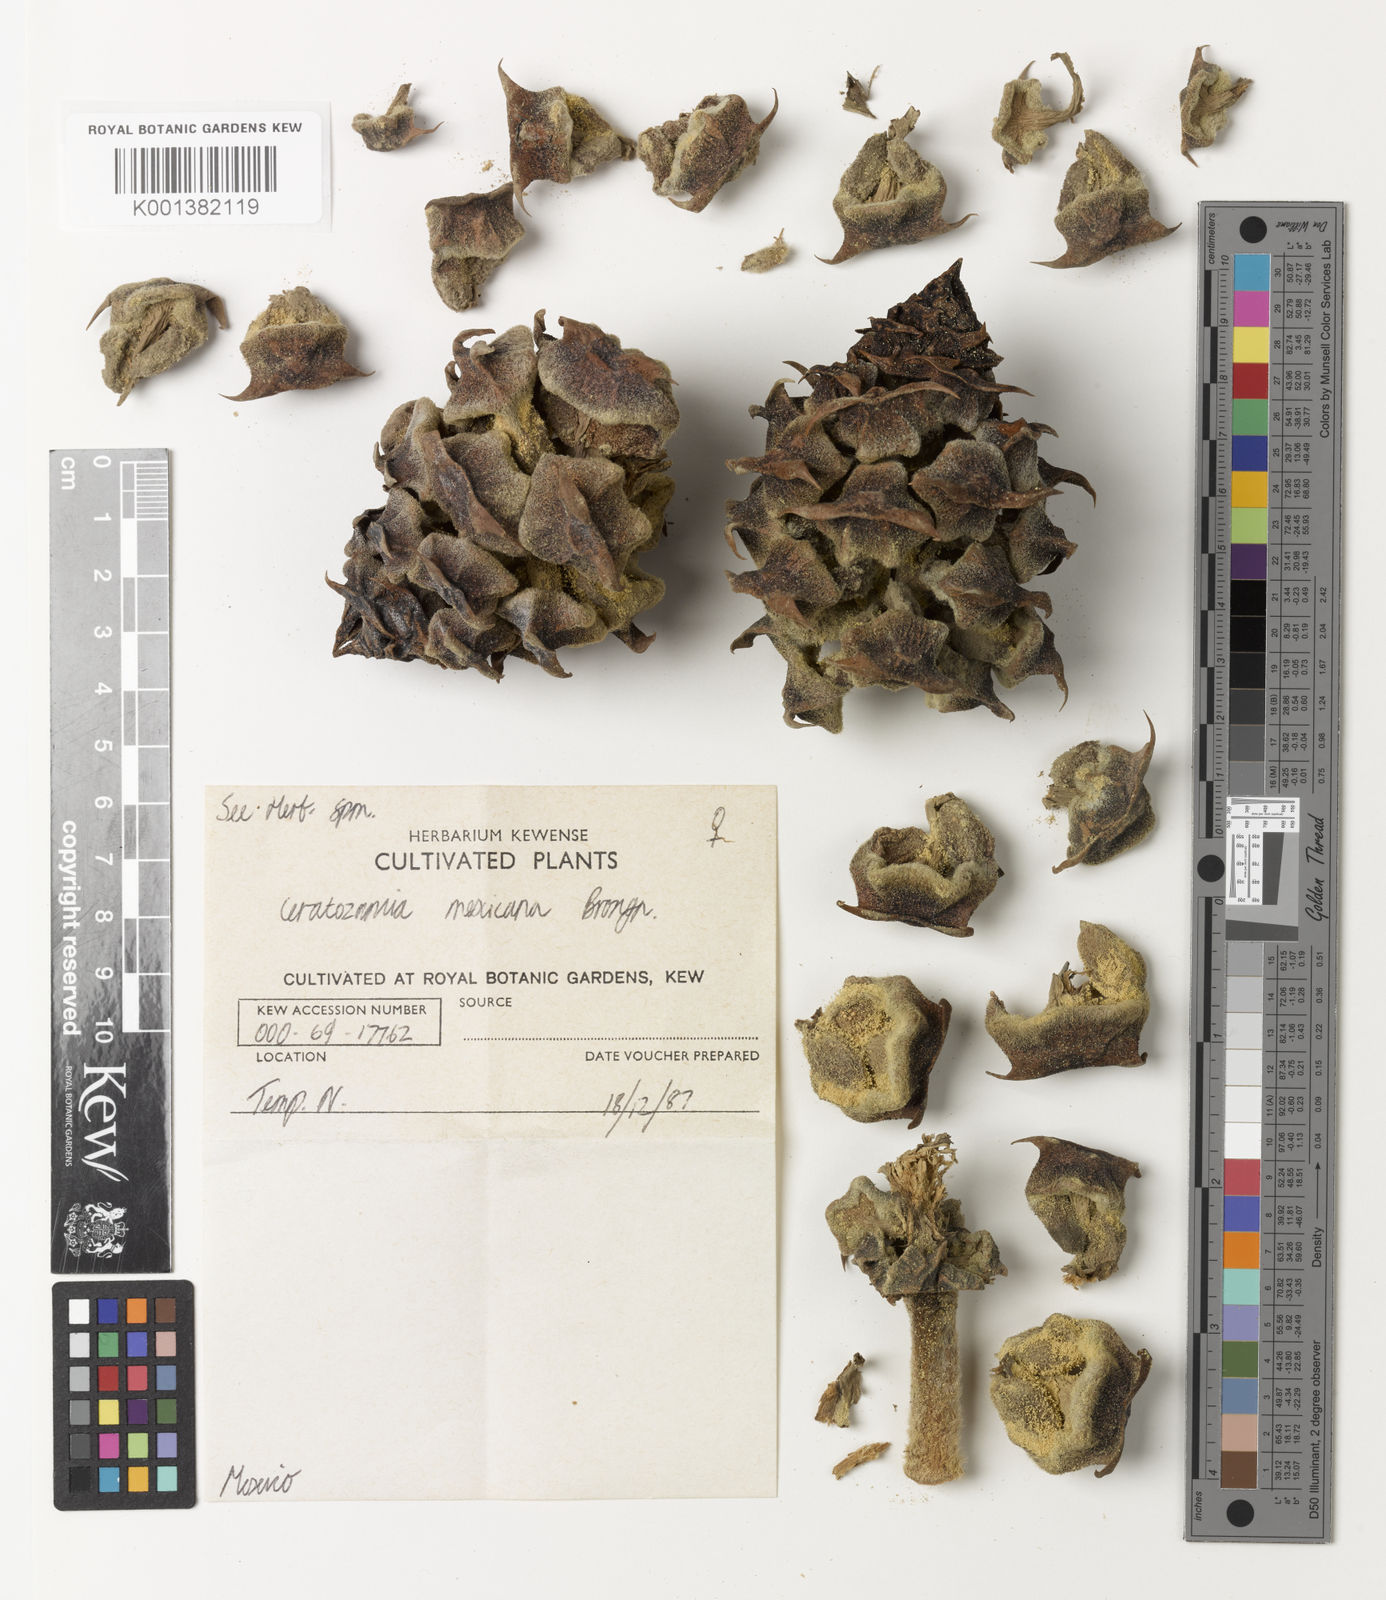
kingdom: Plantae
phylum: Tracheophyta
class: Cycadopsida
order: Cycadales
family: Zamiaceae
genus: Ceratozamia
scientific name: Ceratozamia mexicana
